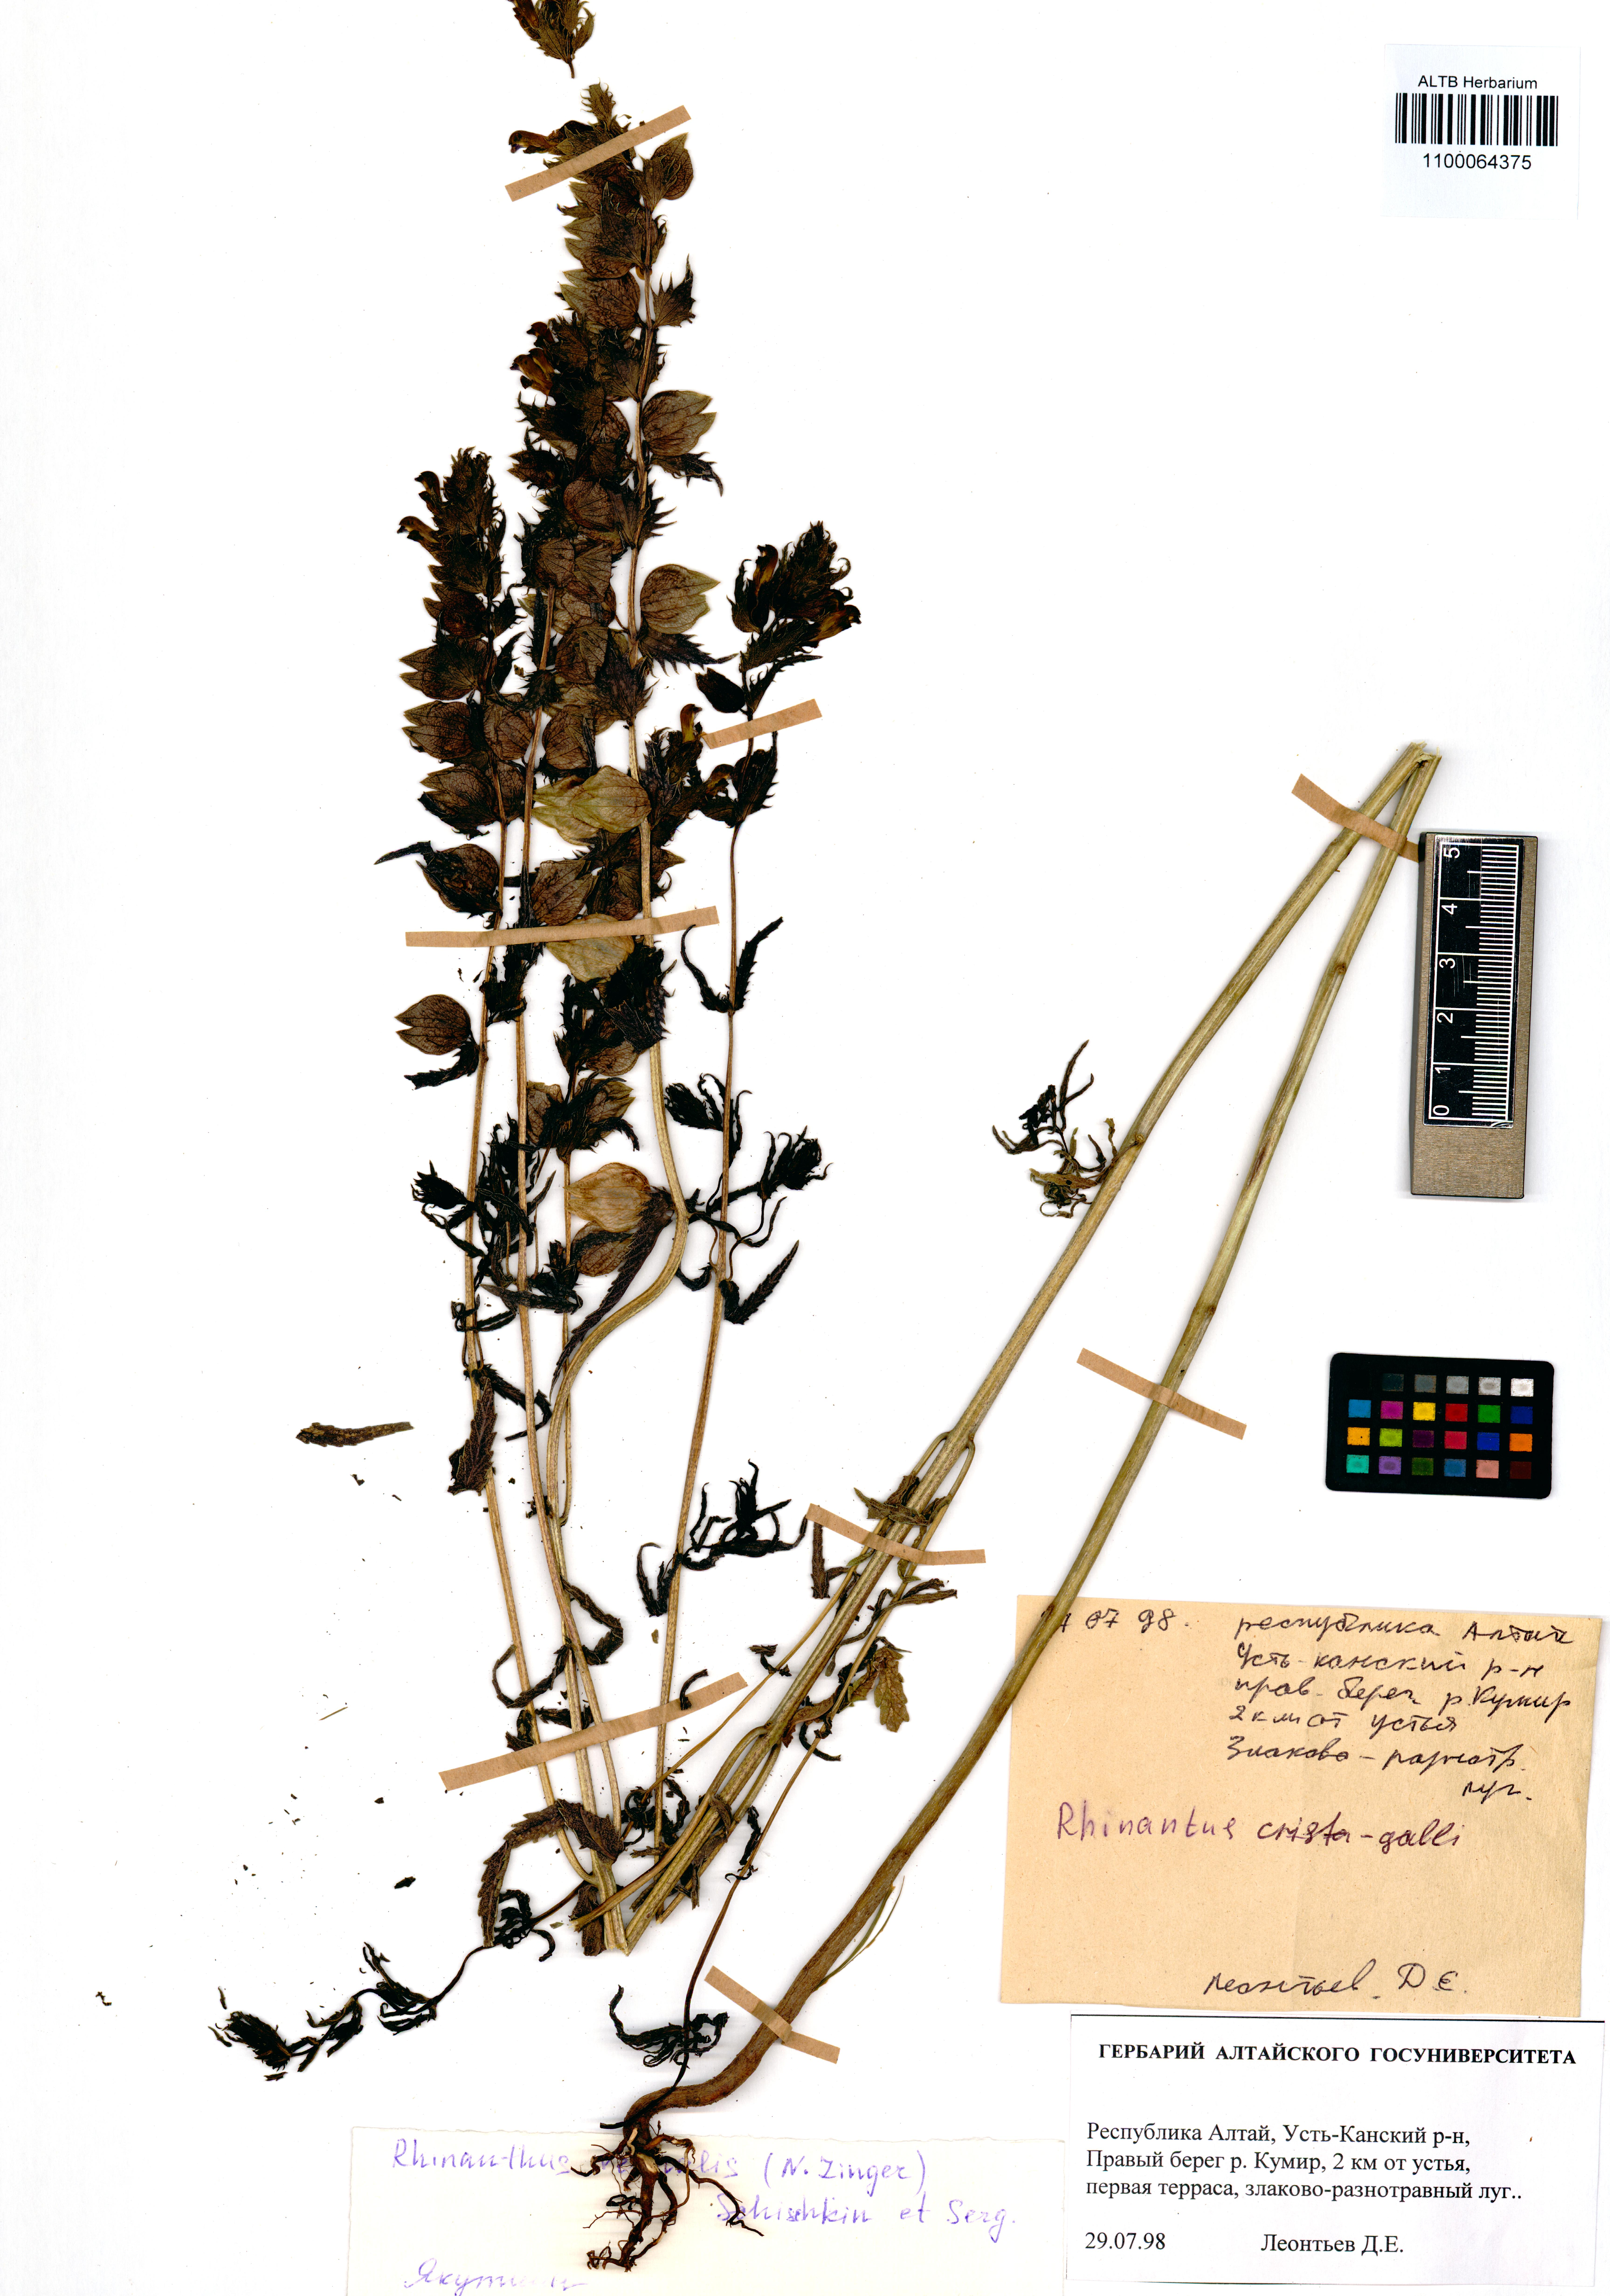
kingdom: Plantae
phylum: Tracheophyta
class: Magnoliopsida
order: Lamiales
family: Orobanchaceae
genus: Rhinanthus
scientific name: Rhinanthus serotinus
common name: Late-flowering yellow rattle
